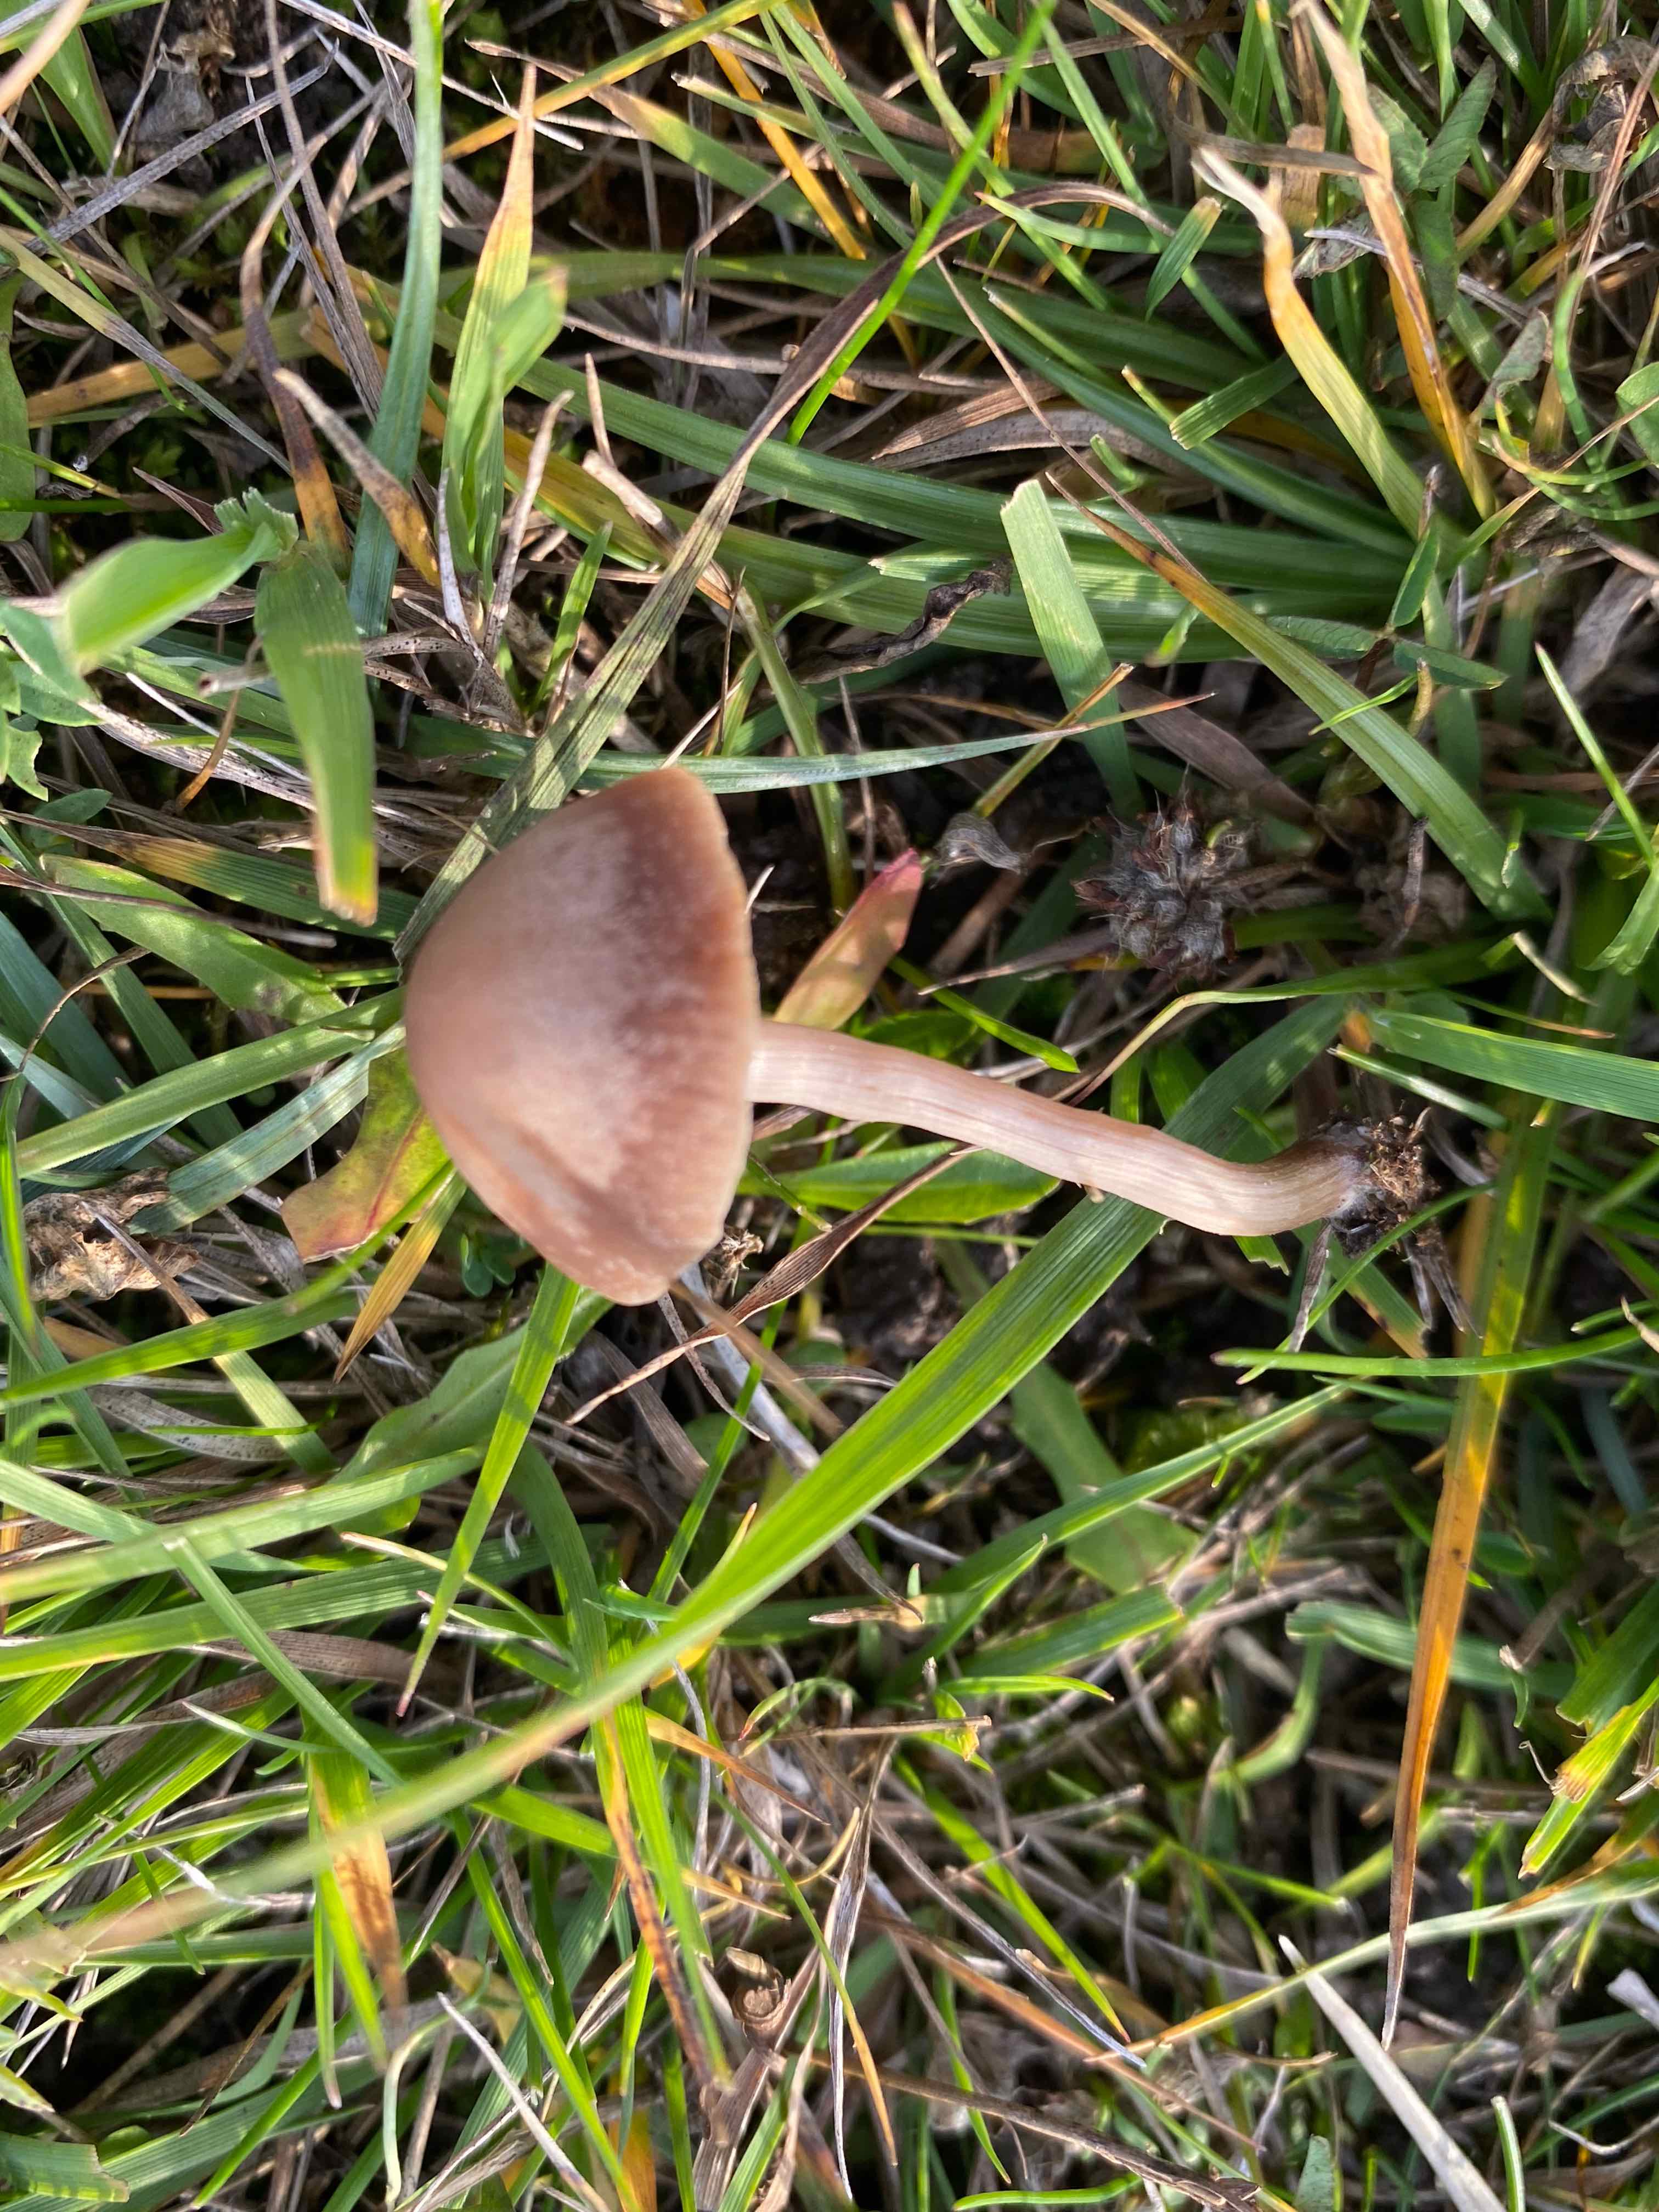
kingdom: Fungi
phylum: Basidiomycota
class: Agaricomycetes
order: Agaricales
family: Bolbitiaceae
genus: Panaeolina
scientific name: Panaeolina foenisecii
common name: høslætsvamp
